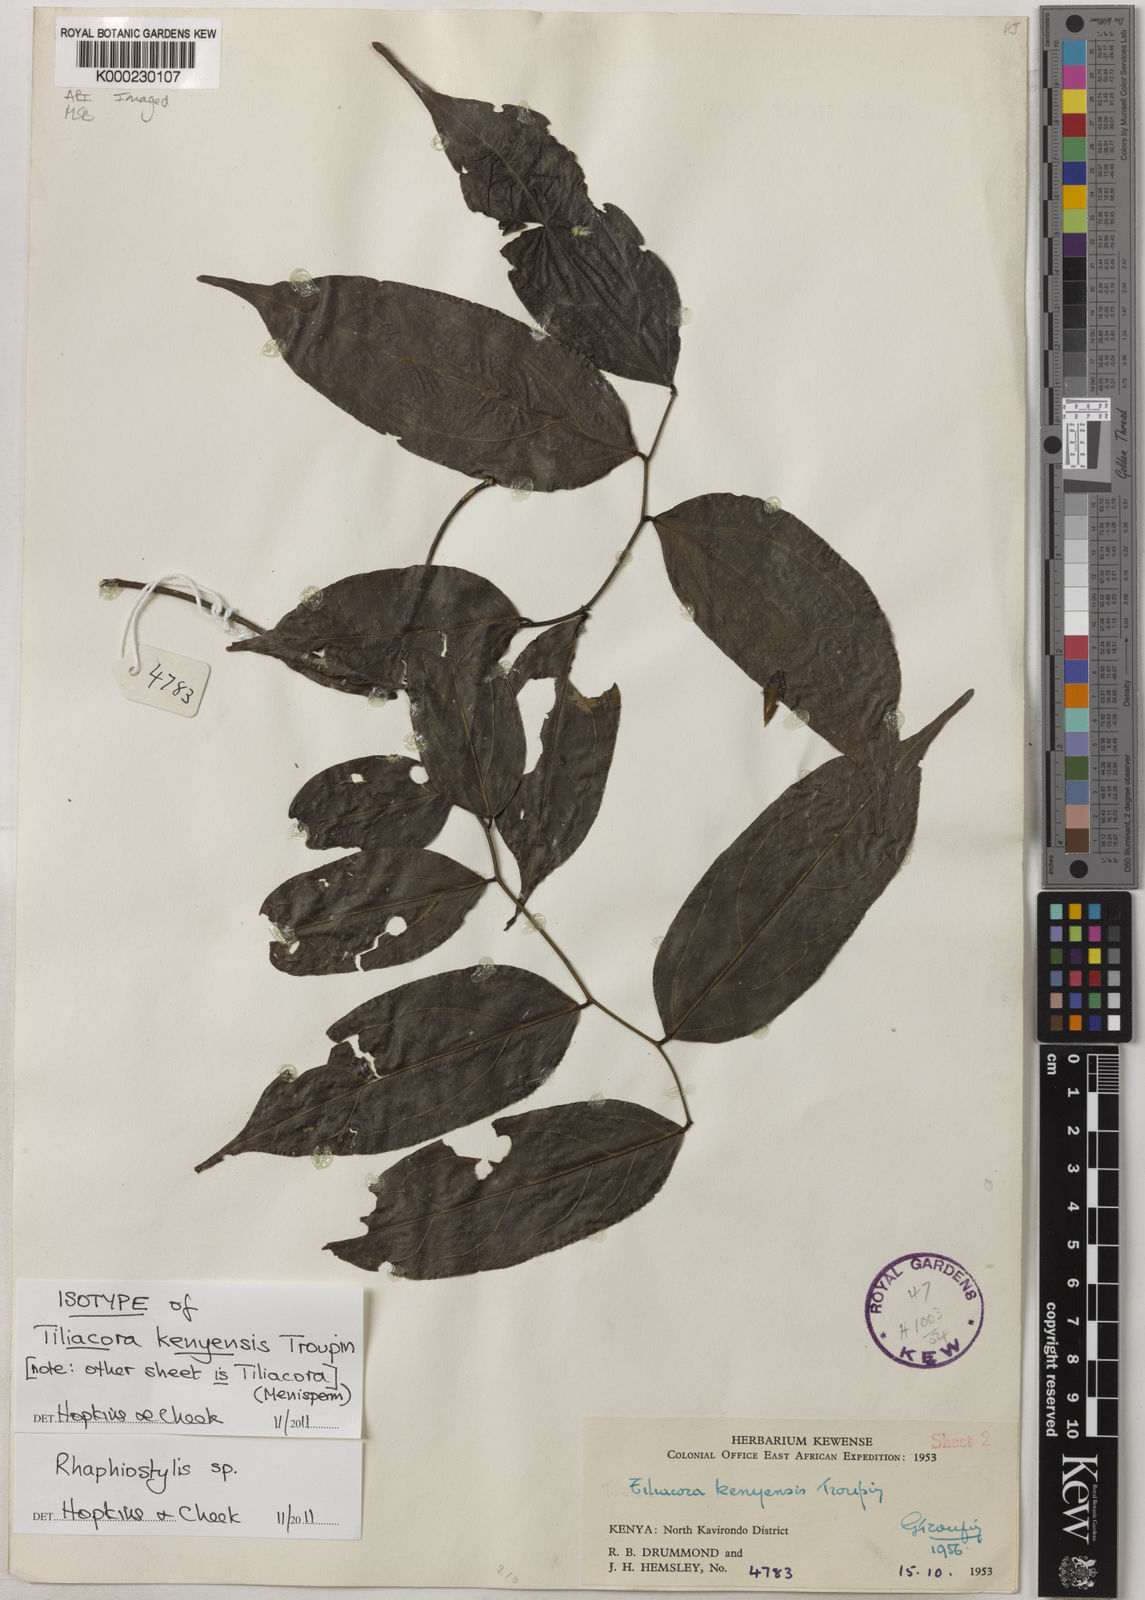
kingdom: Plantae
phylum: Tracheophyta
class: Magnoliopsida
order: Metteniusales
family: Metteniusaceae
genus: Rhaphiostylis
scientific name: Rhaphiostylis
